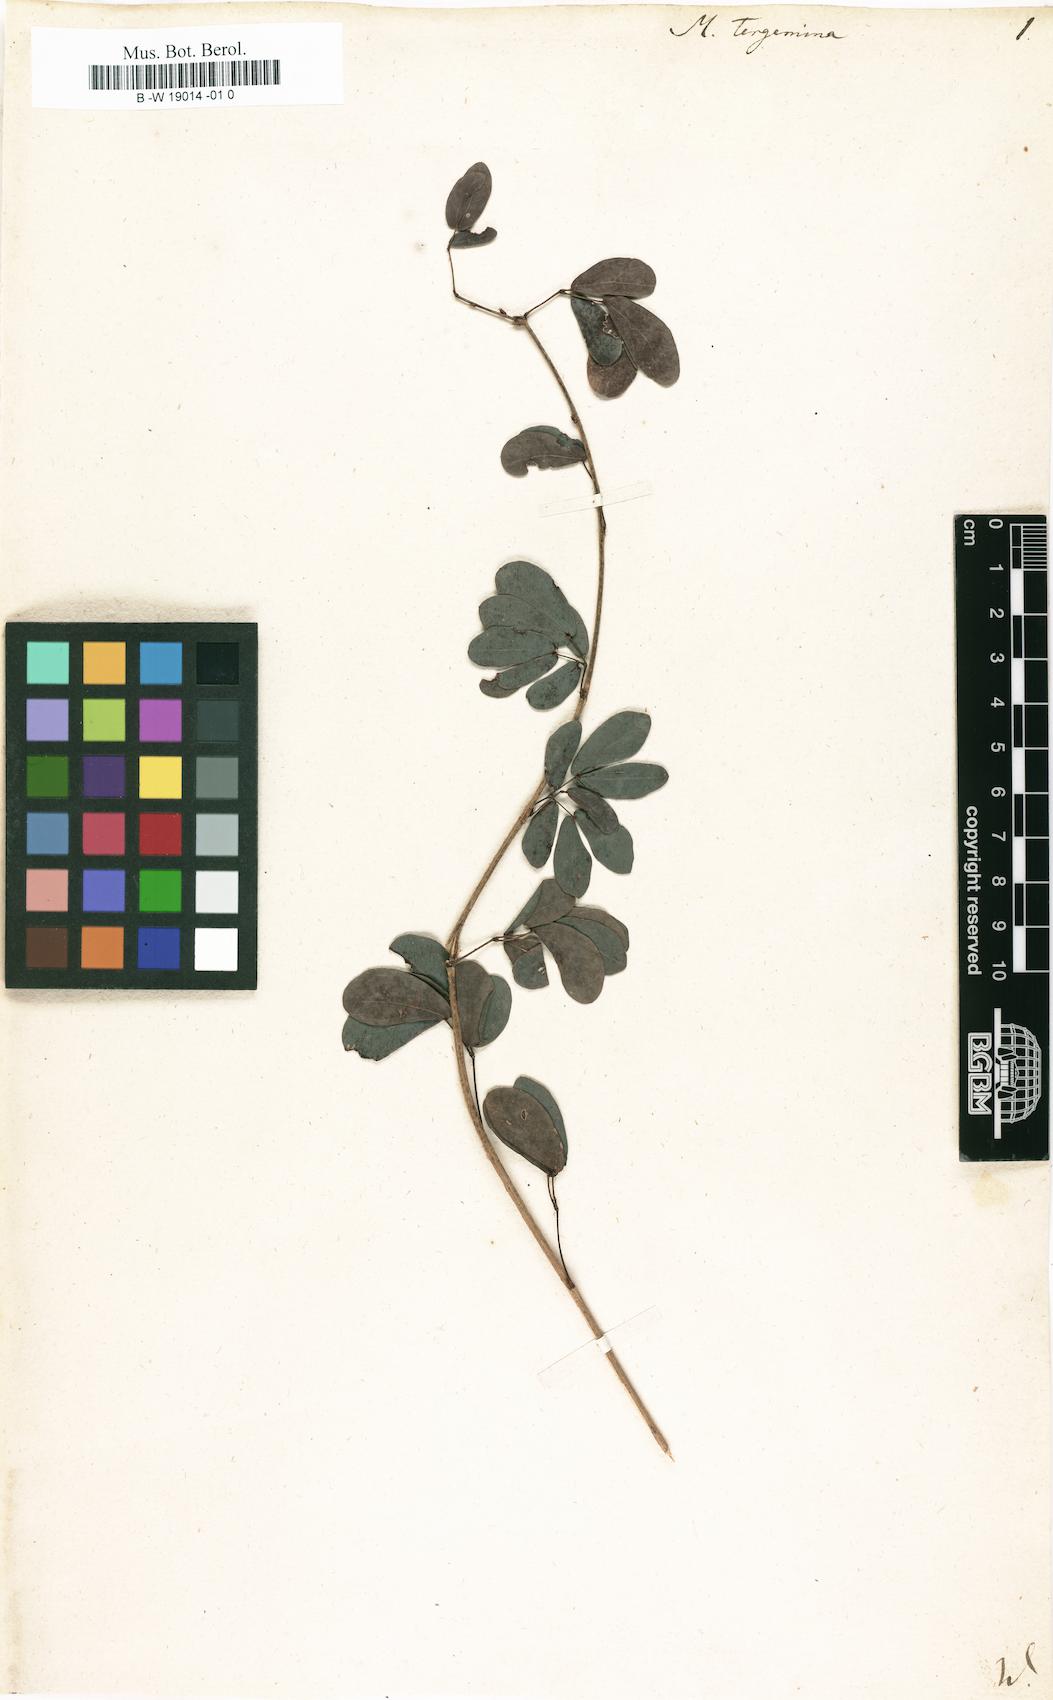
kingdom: Plantae
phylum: Tracheophyta
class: Magnoliopsida
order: Fabales
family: Fabaceae
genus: Calliandra
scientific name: Calliandra tergemina
